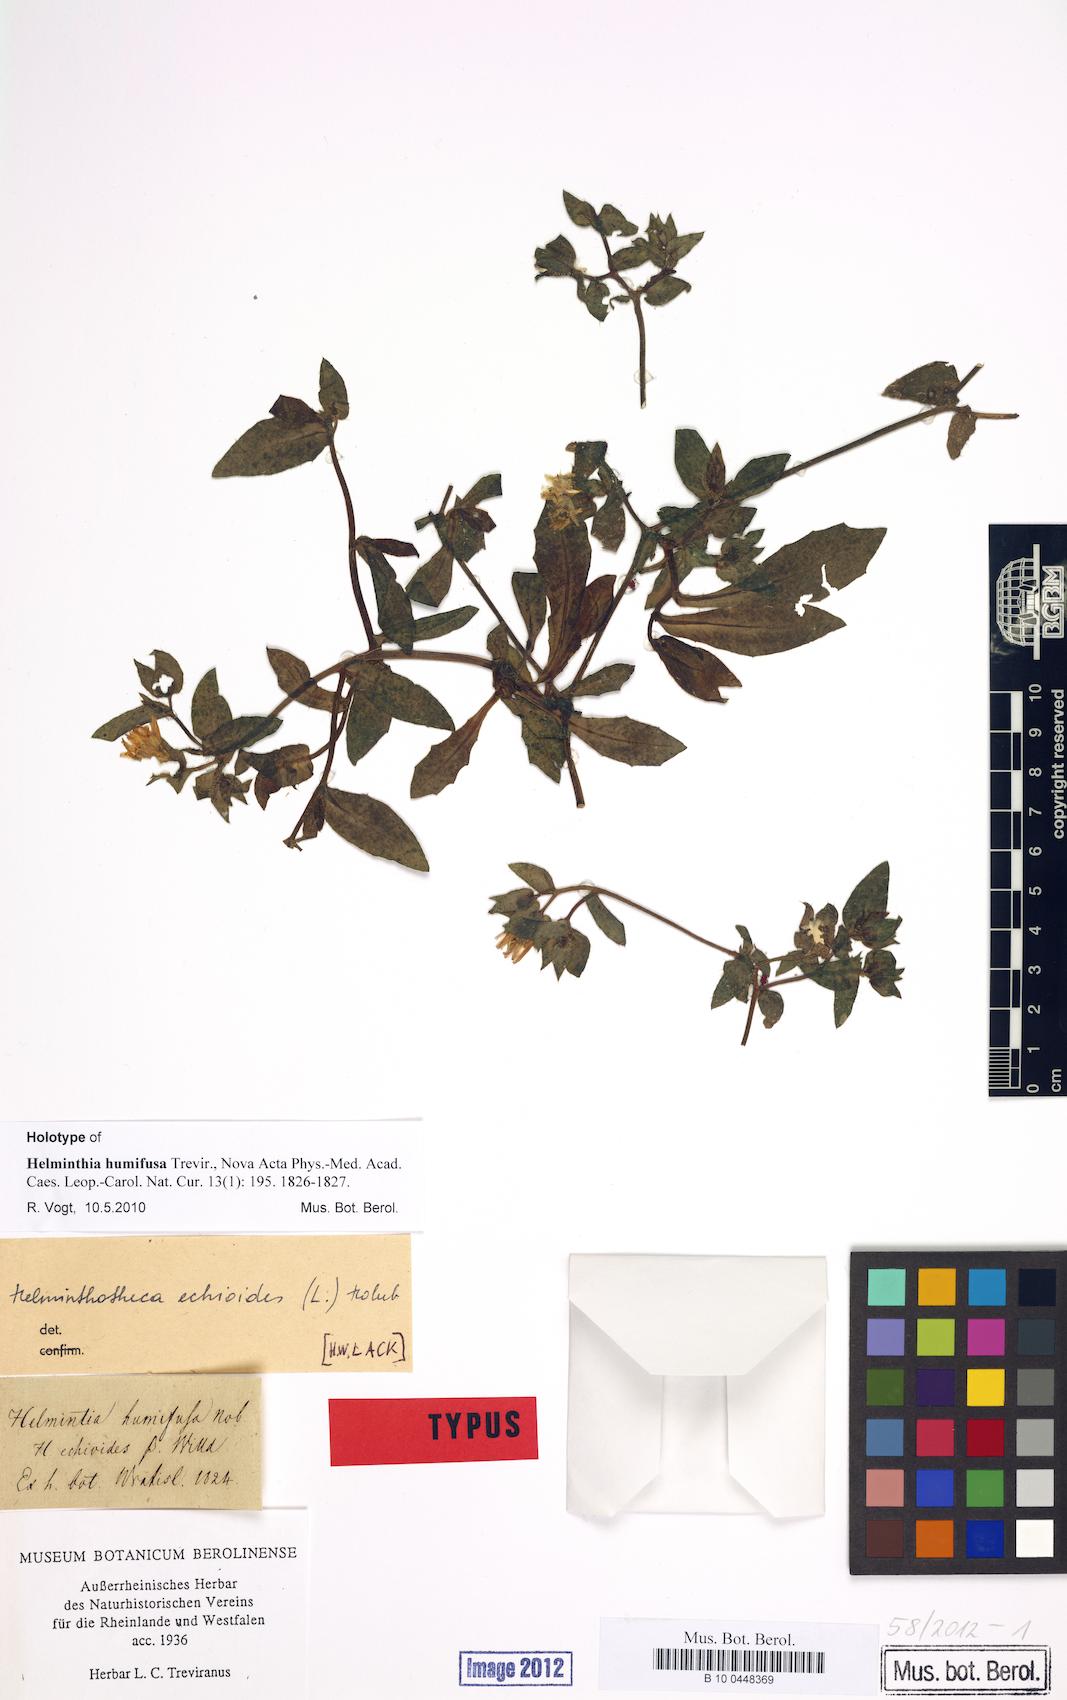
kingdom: Plantae
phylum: Tracheophyta
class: Magnoliopsida
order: Asterales
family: Asteraceae
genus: Helminthotheca
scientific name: Helminthotheca echioides
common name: Ox-tongue
